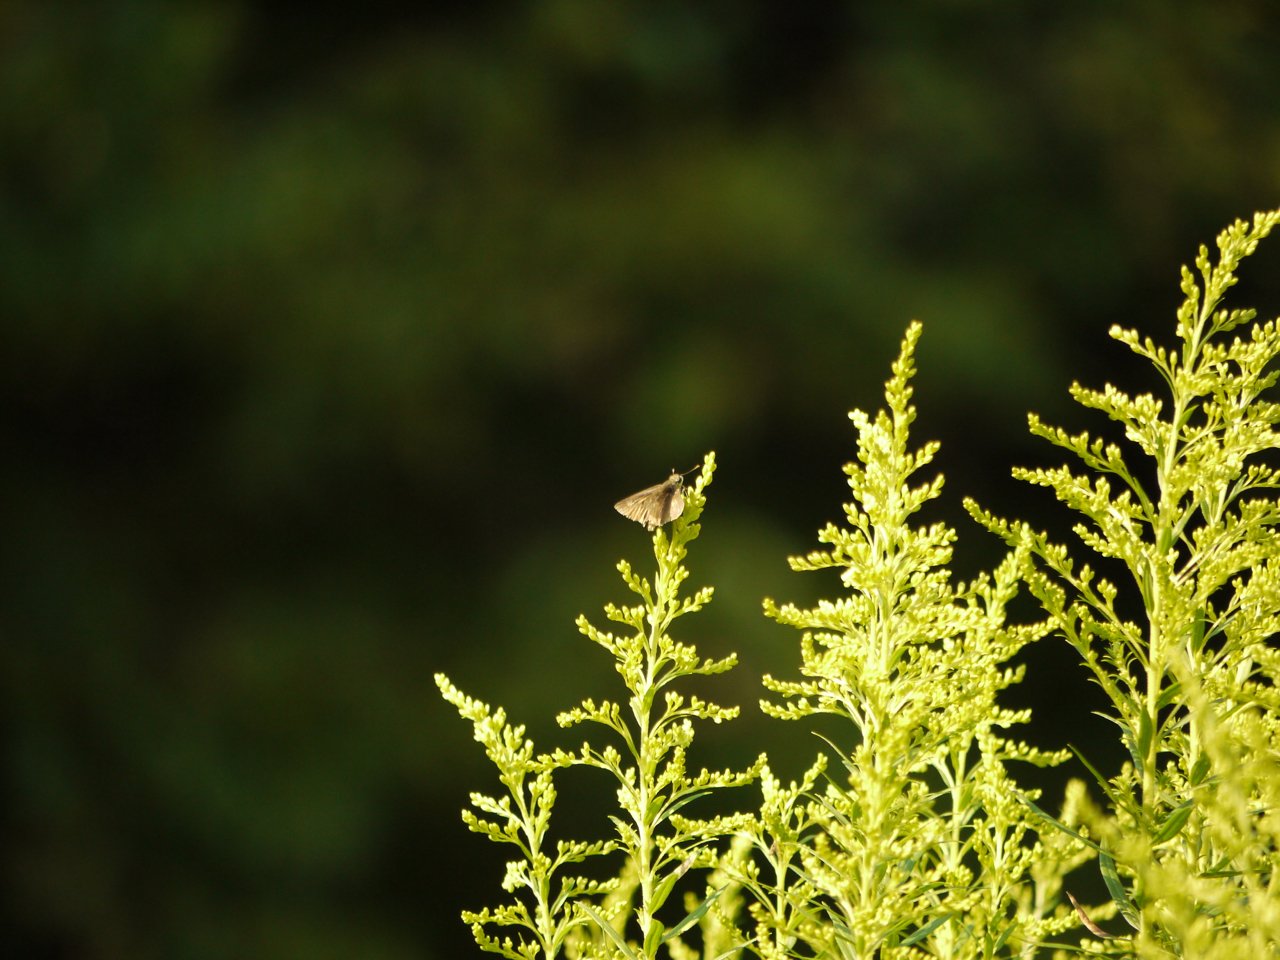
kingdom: Animalia
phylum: Arthropoda
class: Insecta
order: Lepidoptera
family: Hesperiidae
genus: Euphyes
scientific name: Euphyes vestris
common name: Dun Skipper
